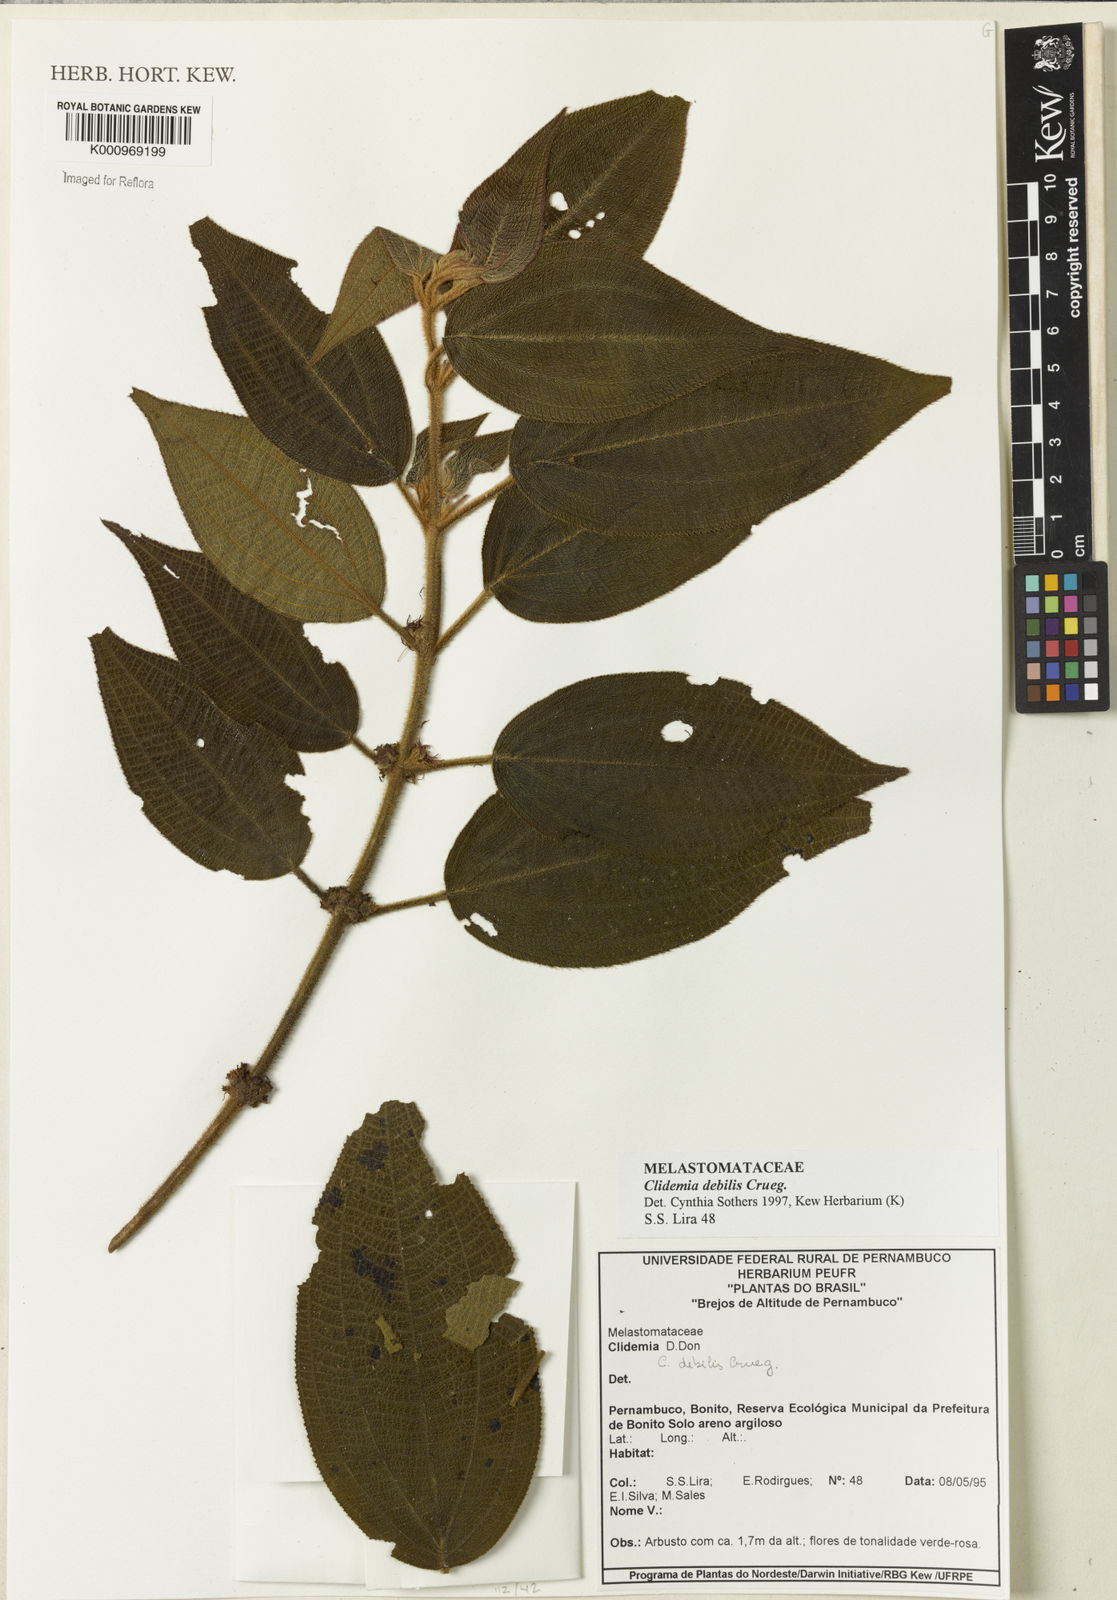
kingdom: Plantae
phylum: Tracheophyta
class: Magnoliopsida
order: Myrtales
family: Melastomataceae
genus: Miconia
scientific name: Miconia debilis
